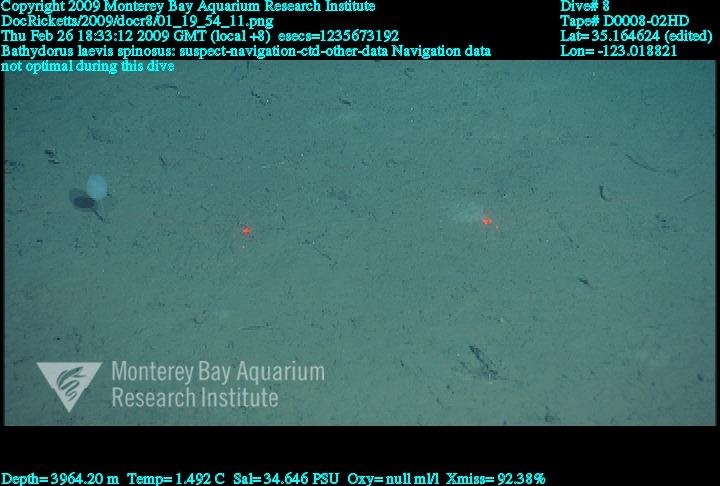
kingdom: Animalia
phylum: Porifera
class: Hexactinellida
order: Lyssacinosida
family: Rossellidae
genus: Bathydorus
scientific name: Bathydorus spinosus
